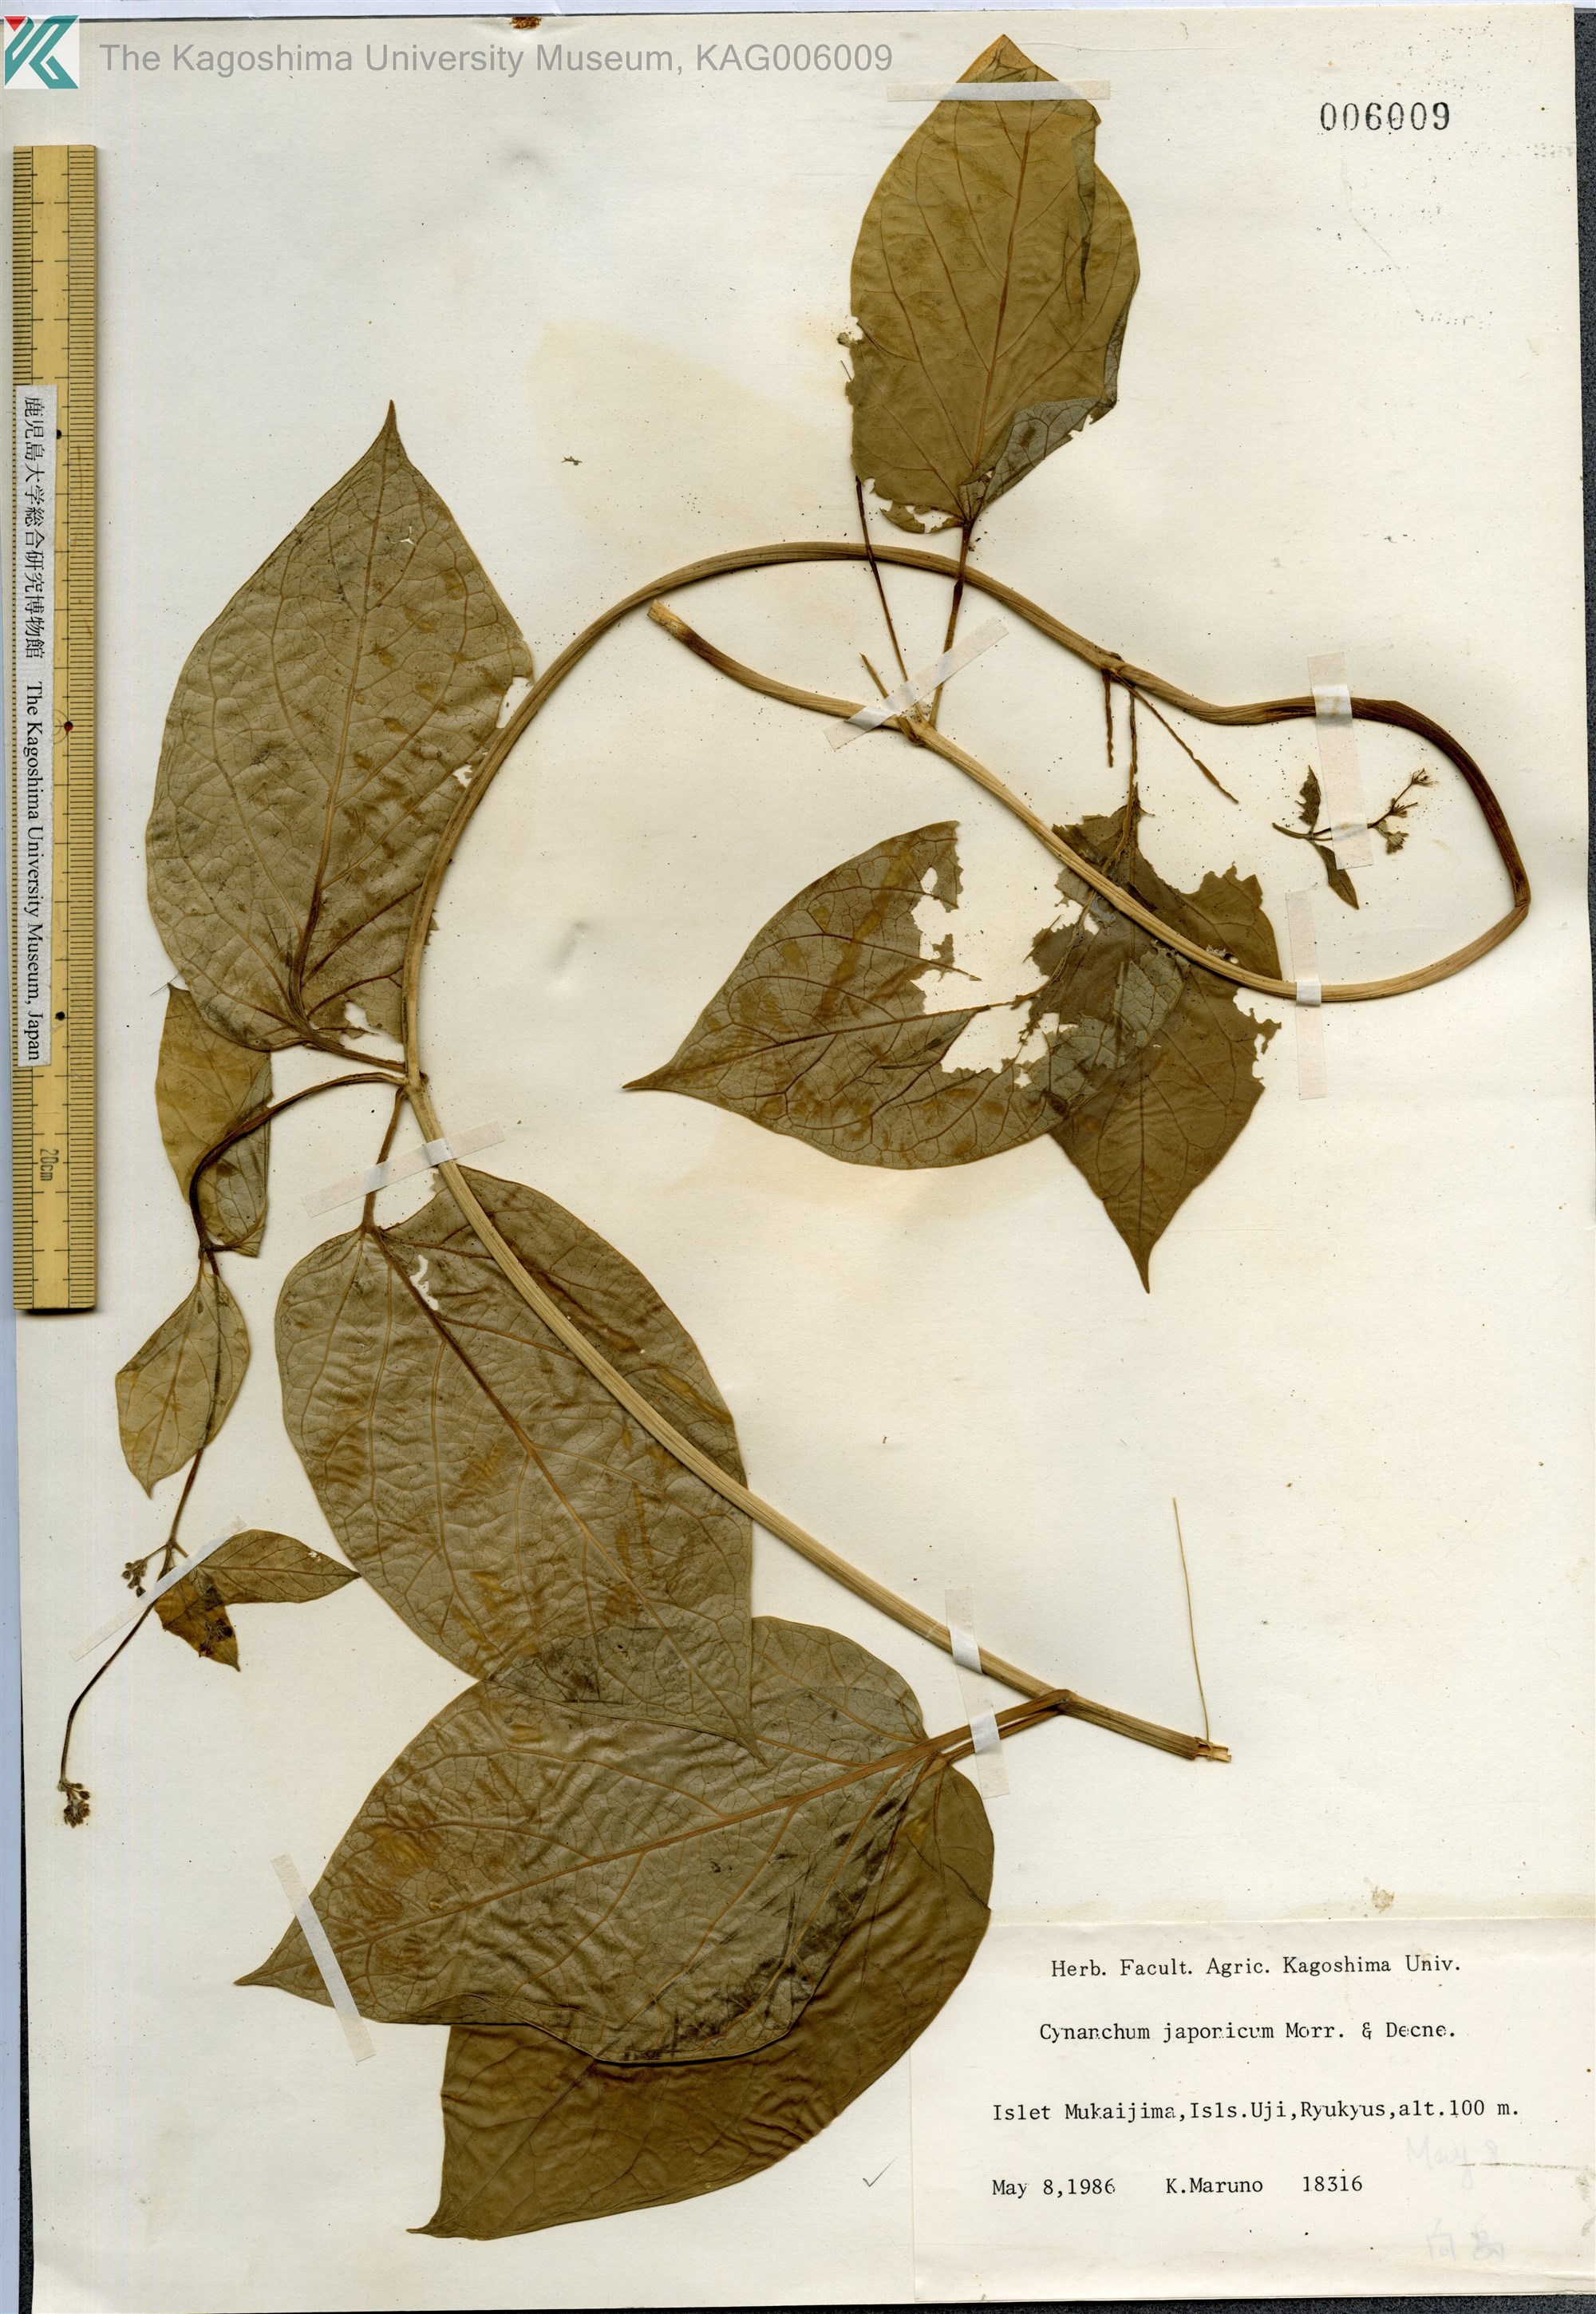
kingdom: Plantae
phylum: Tracheophyta
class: Magnoliopsida
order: Gentianales
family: Apocynaceae
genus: Vincetoxicum
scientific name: Vincetoxicum japonicum
